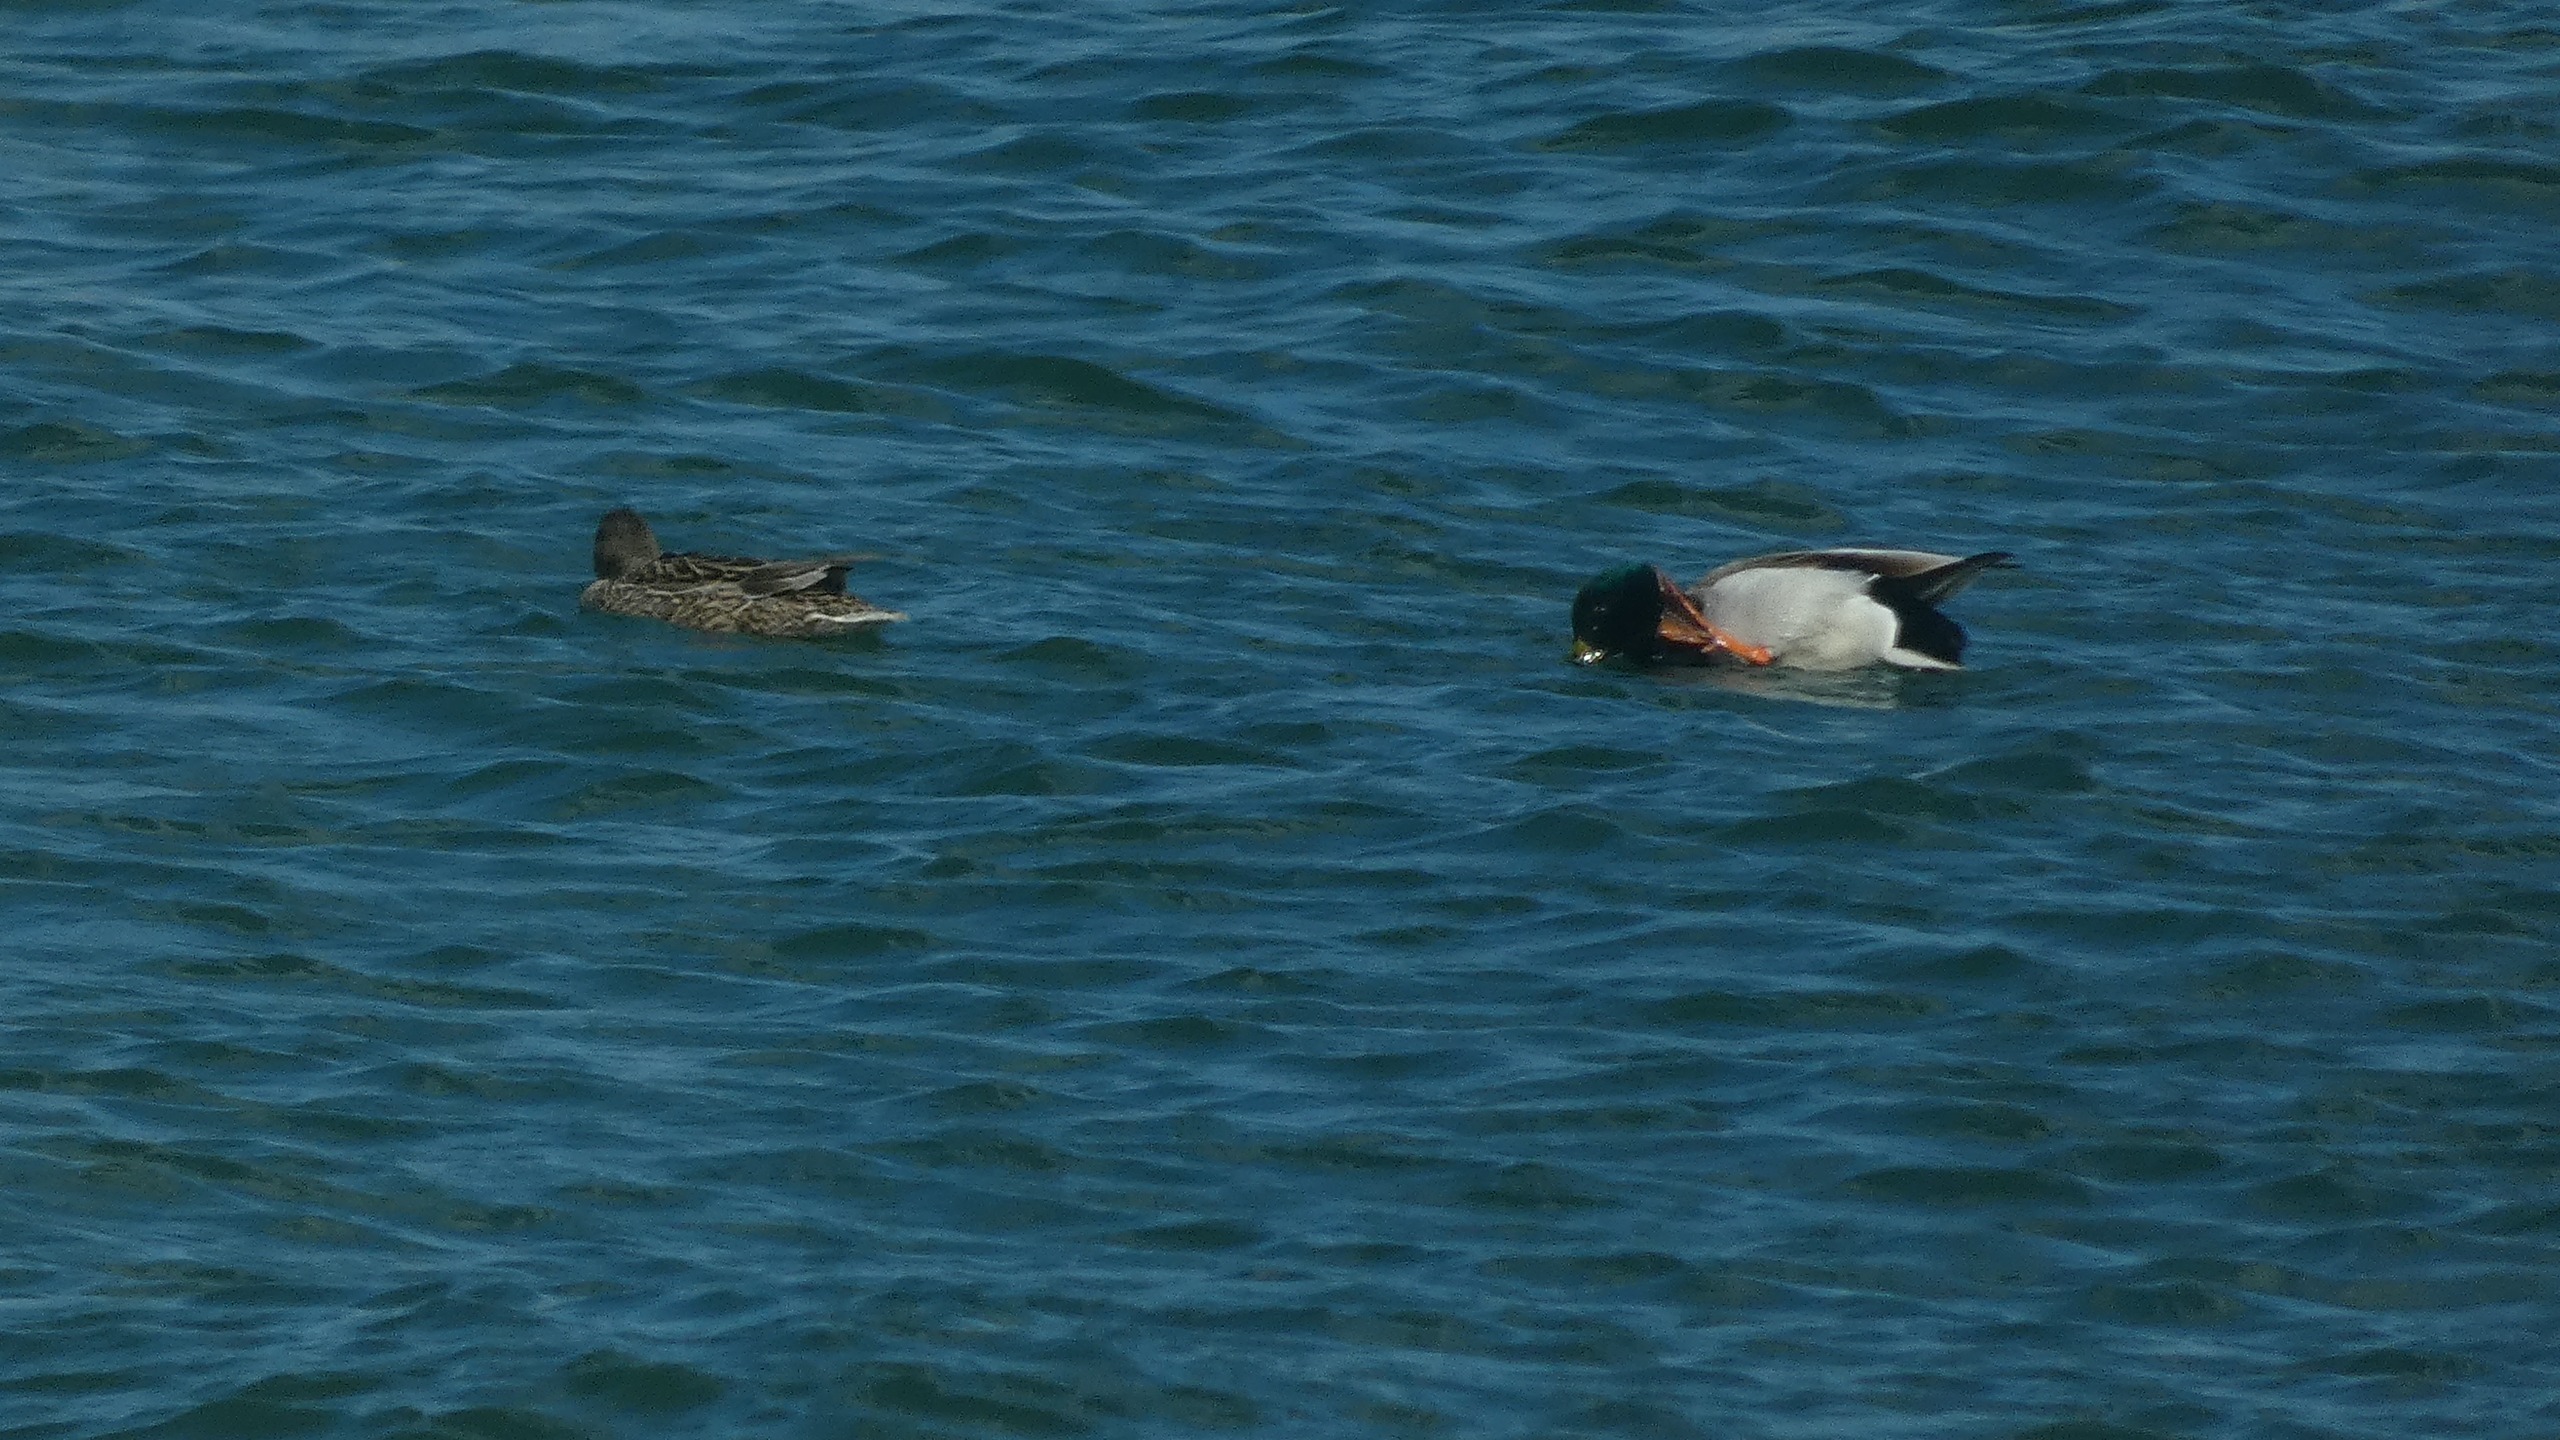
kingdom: Animalia
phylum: Chordata
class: Aves
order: Anseriformes
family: Anatidae
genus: Anas
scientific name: Anas platyrhynchos
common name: Gråand
